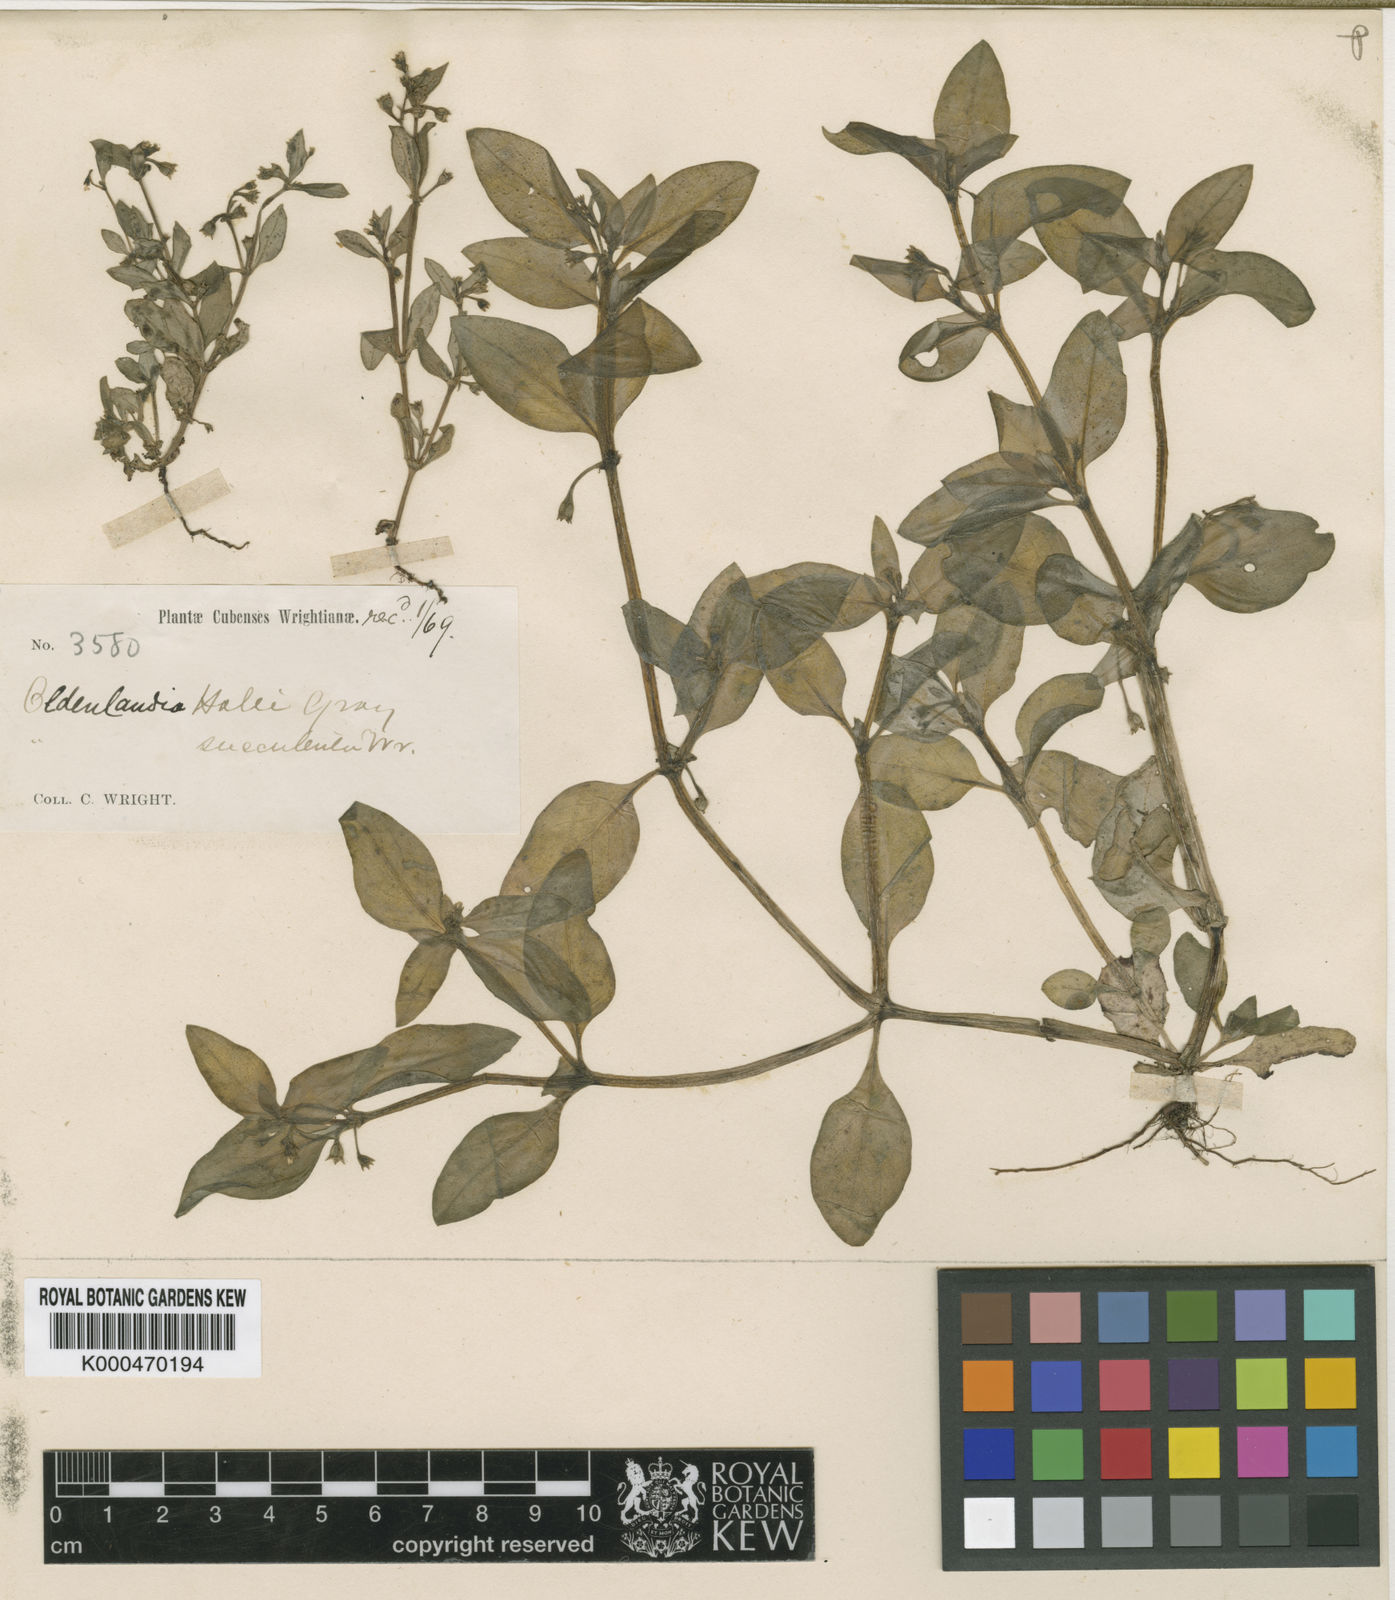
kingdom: Plantae
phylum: Tracheophyta
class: Magnoliopsida
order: Gentianales
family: Rubiaceae
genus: Pentodon
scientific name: Pentodon pentandrus
